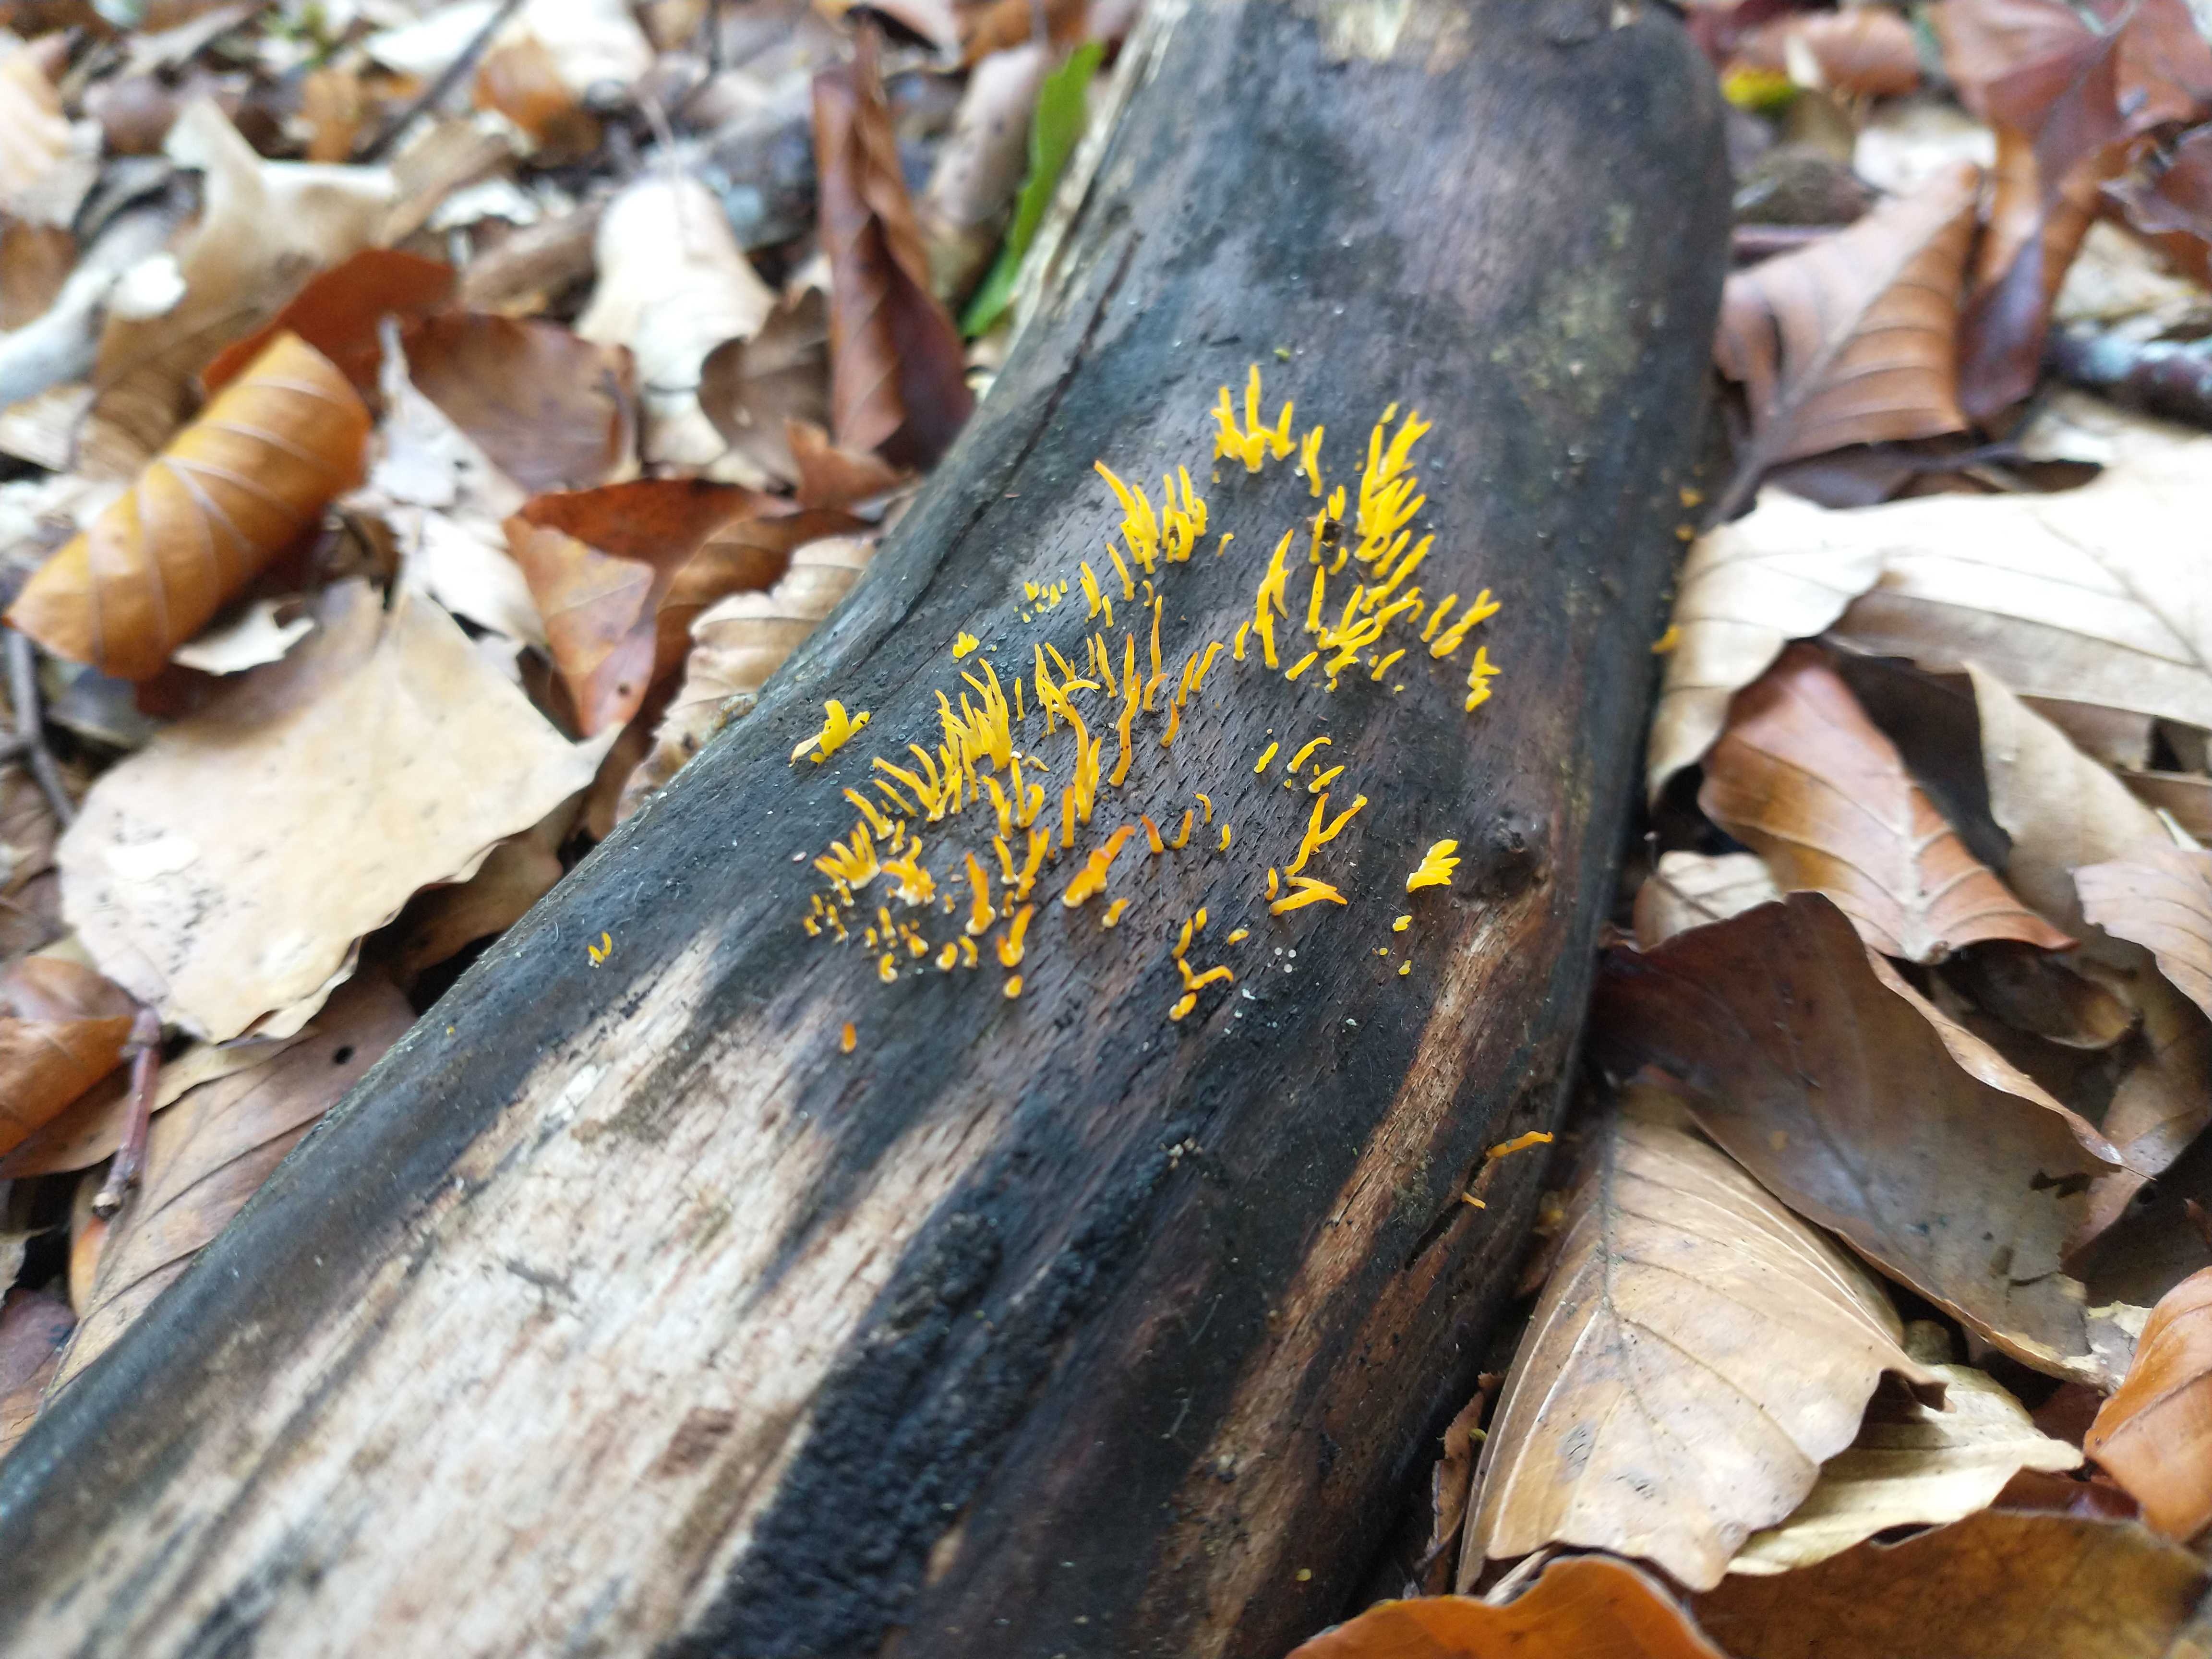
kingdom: Fungi
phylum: Basidiomycota
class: Dacrymycetes
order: Dacrymycetales
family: Dacrymycetaceae
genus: Calocera
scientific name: Calocera cornea
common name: liden guldgaffel
